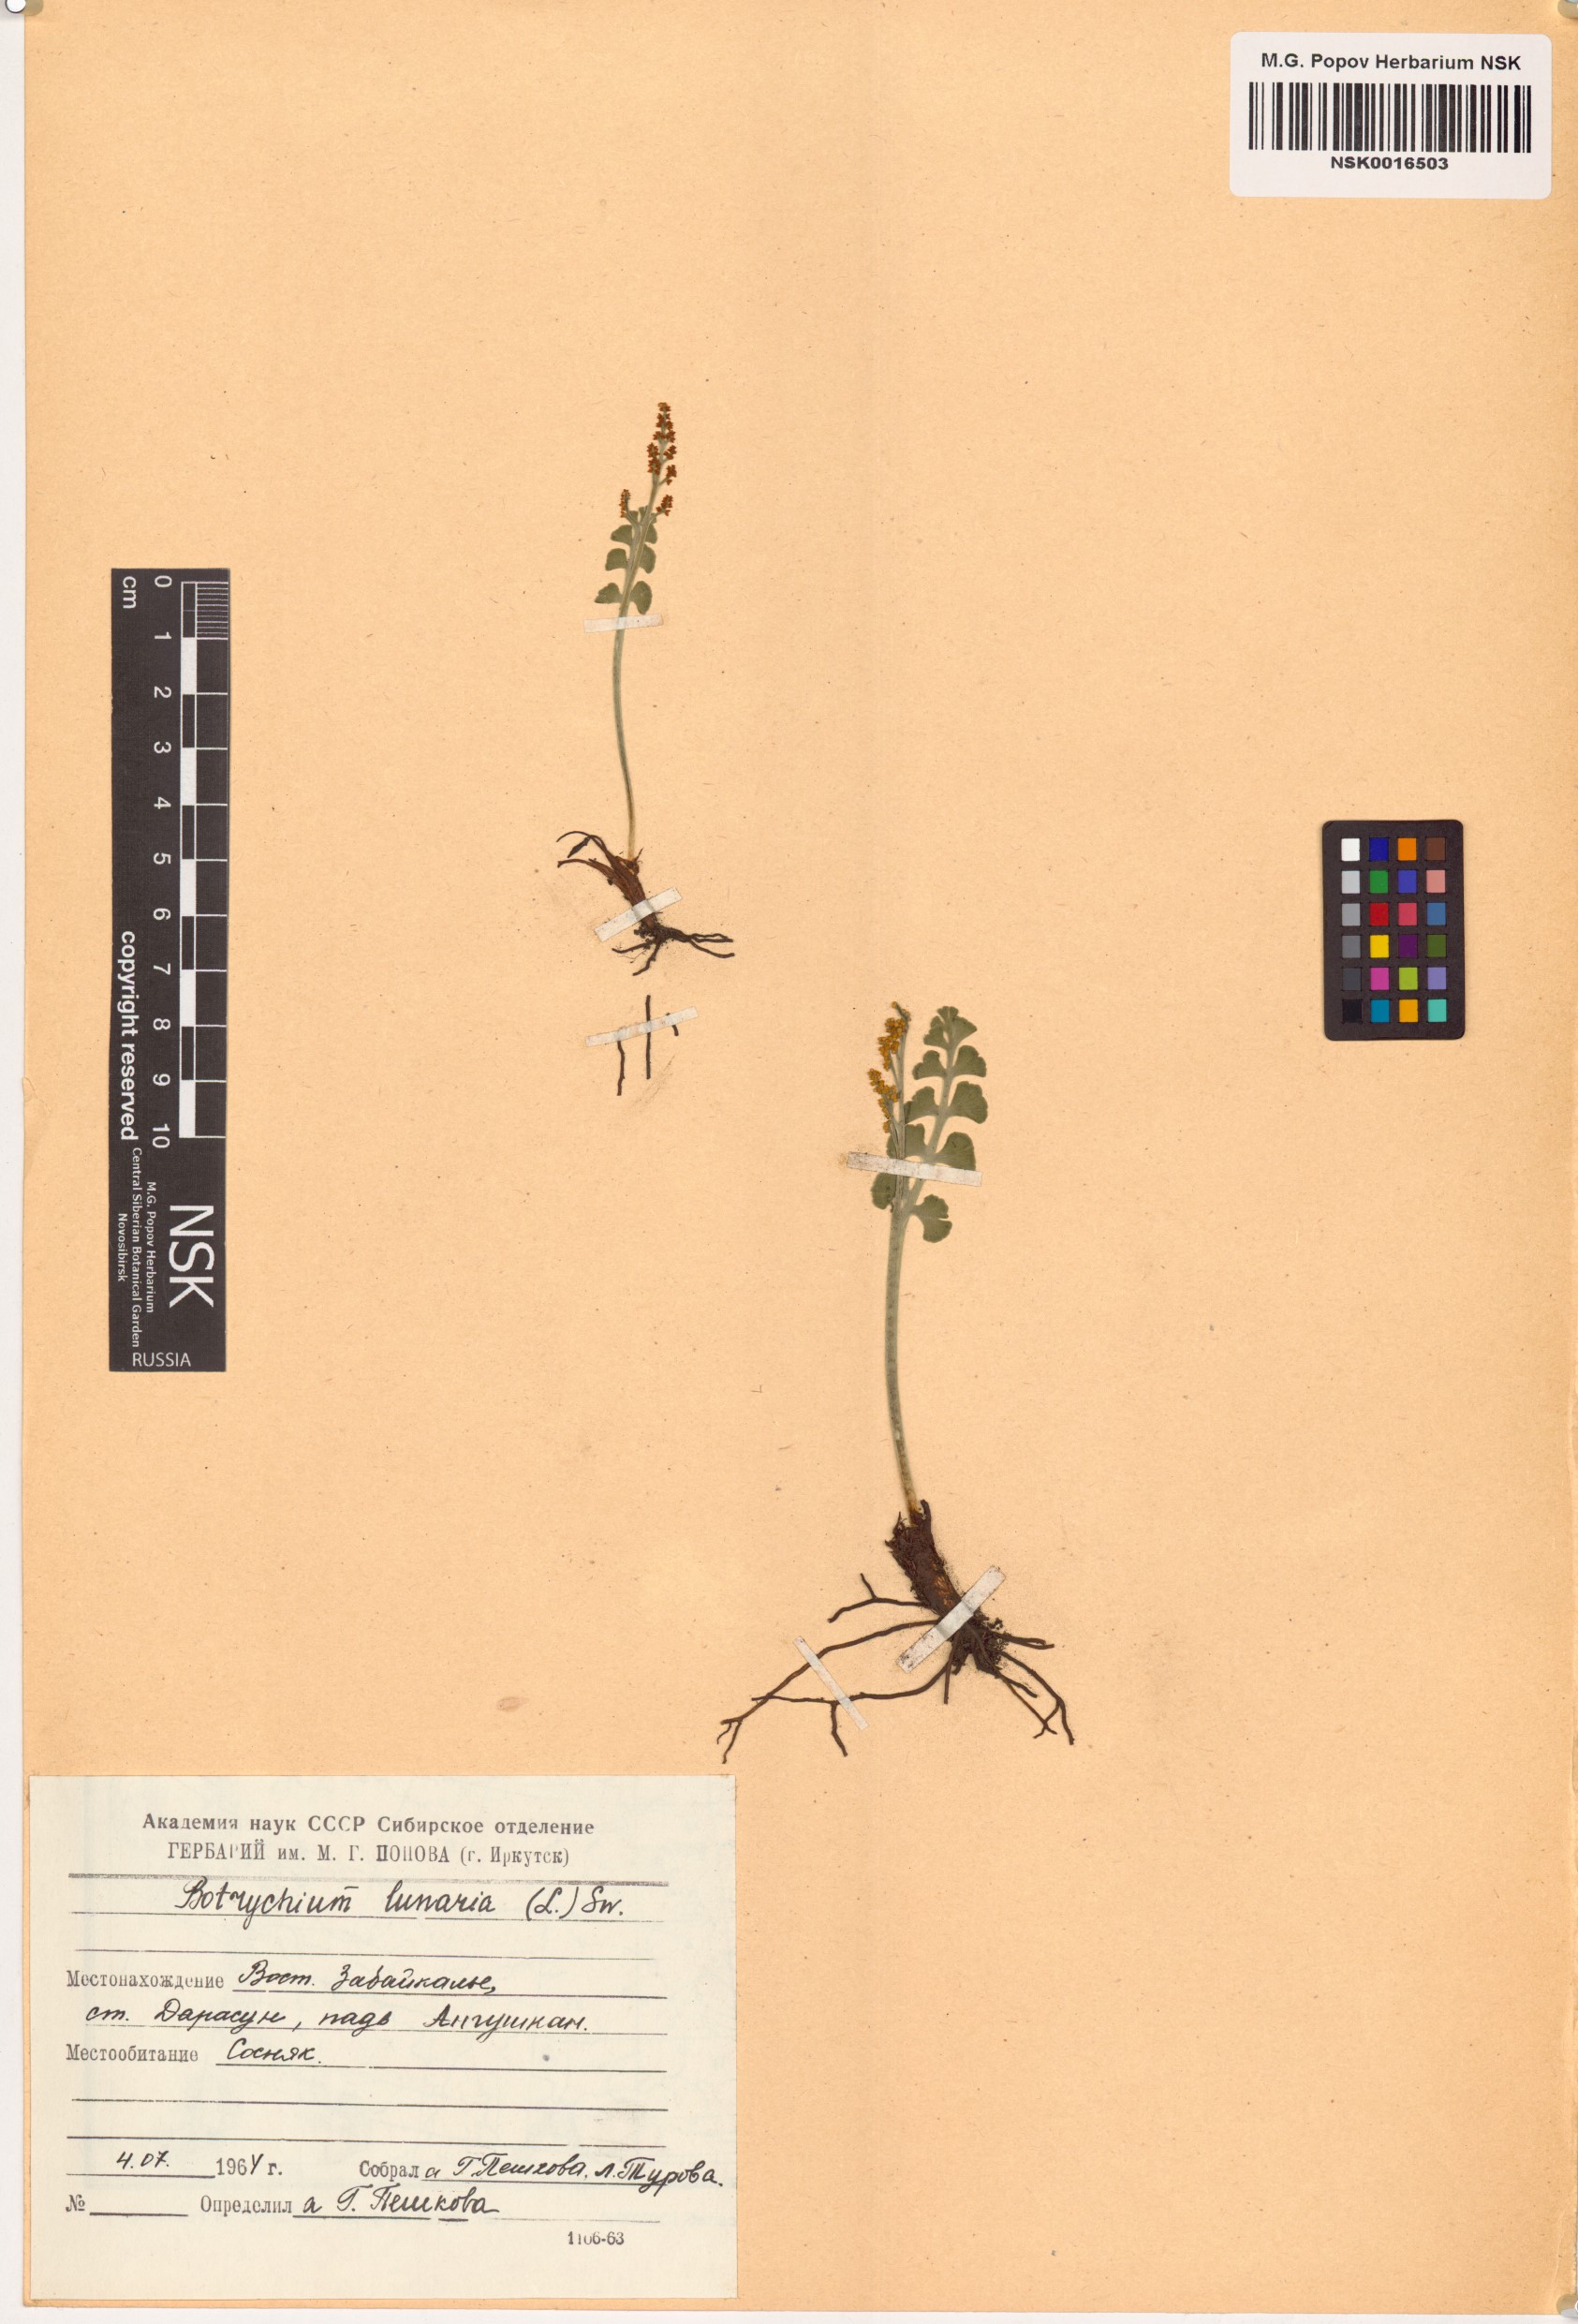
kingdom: Plantae
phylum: Tracheophyta
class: Polypodiopsida
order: Ophioglossales
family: Ophioglossaceae
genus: Botrychium
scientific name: Botrychium lunaria
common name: Moonwort
